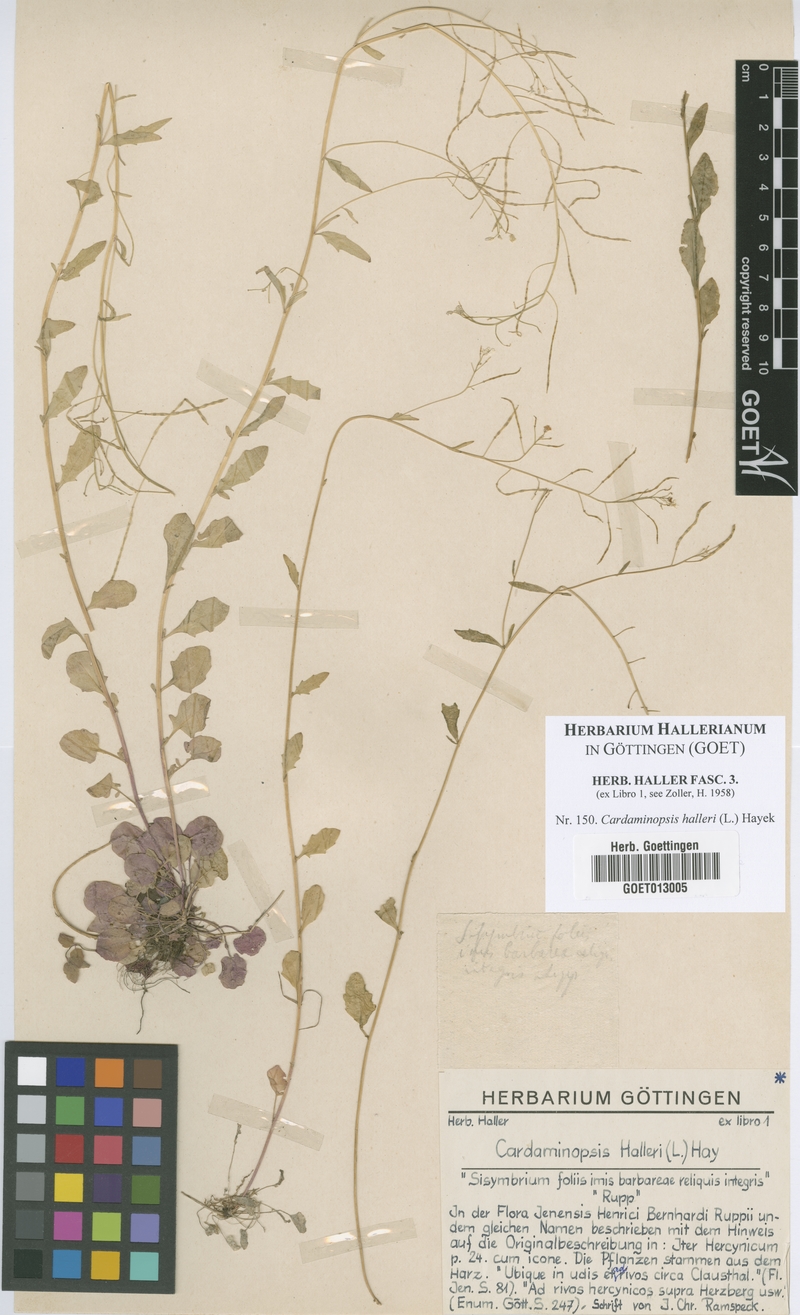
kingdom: Plantae
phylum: Tracheophyta
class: Magnoliopsida
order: Brassicales
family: Brassicaceae
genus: Arabidopsis
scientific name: Arabidopsis halleri
